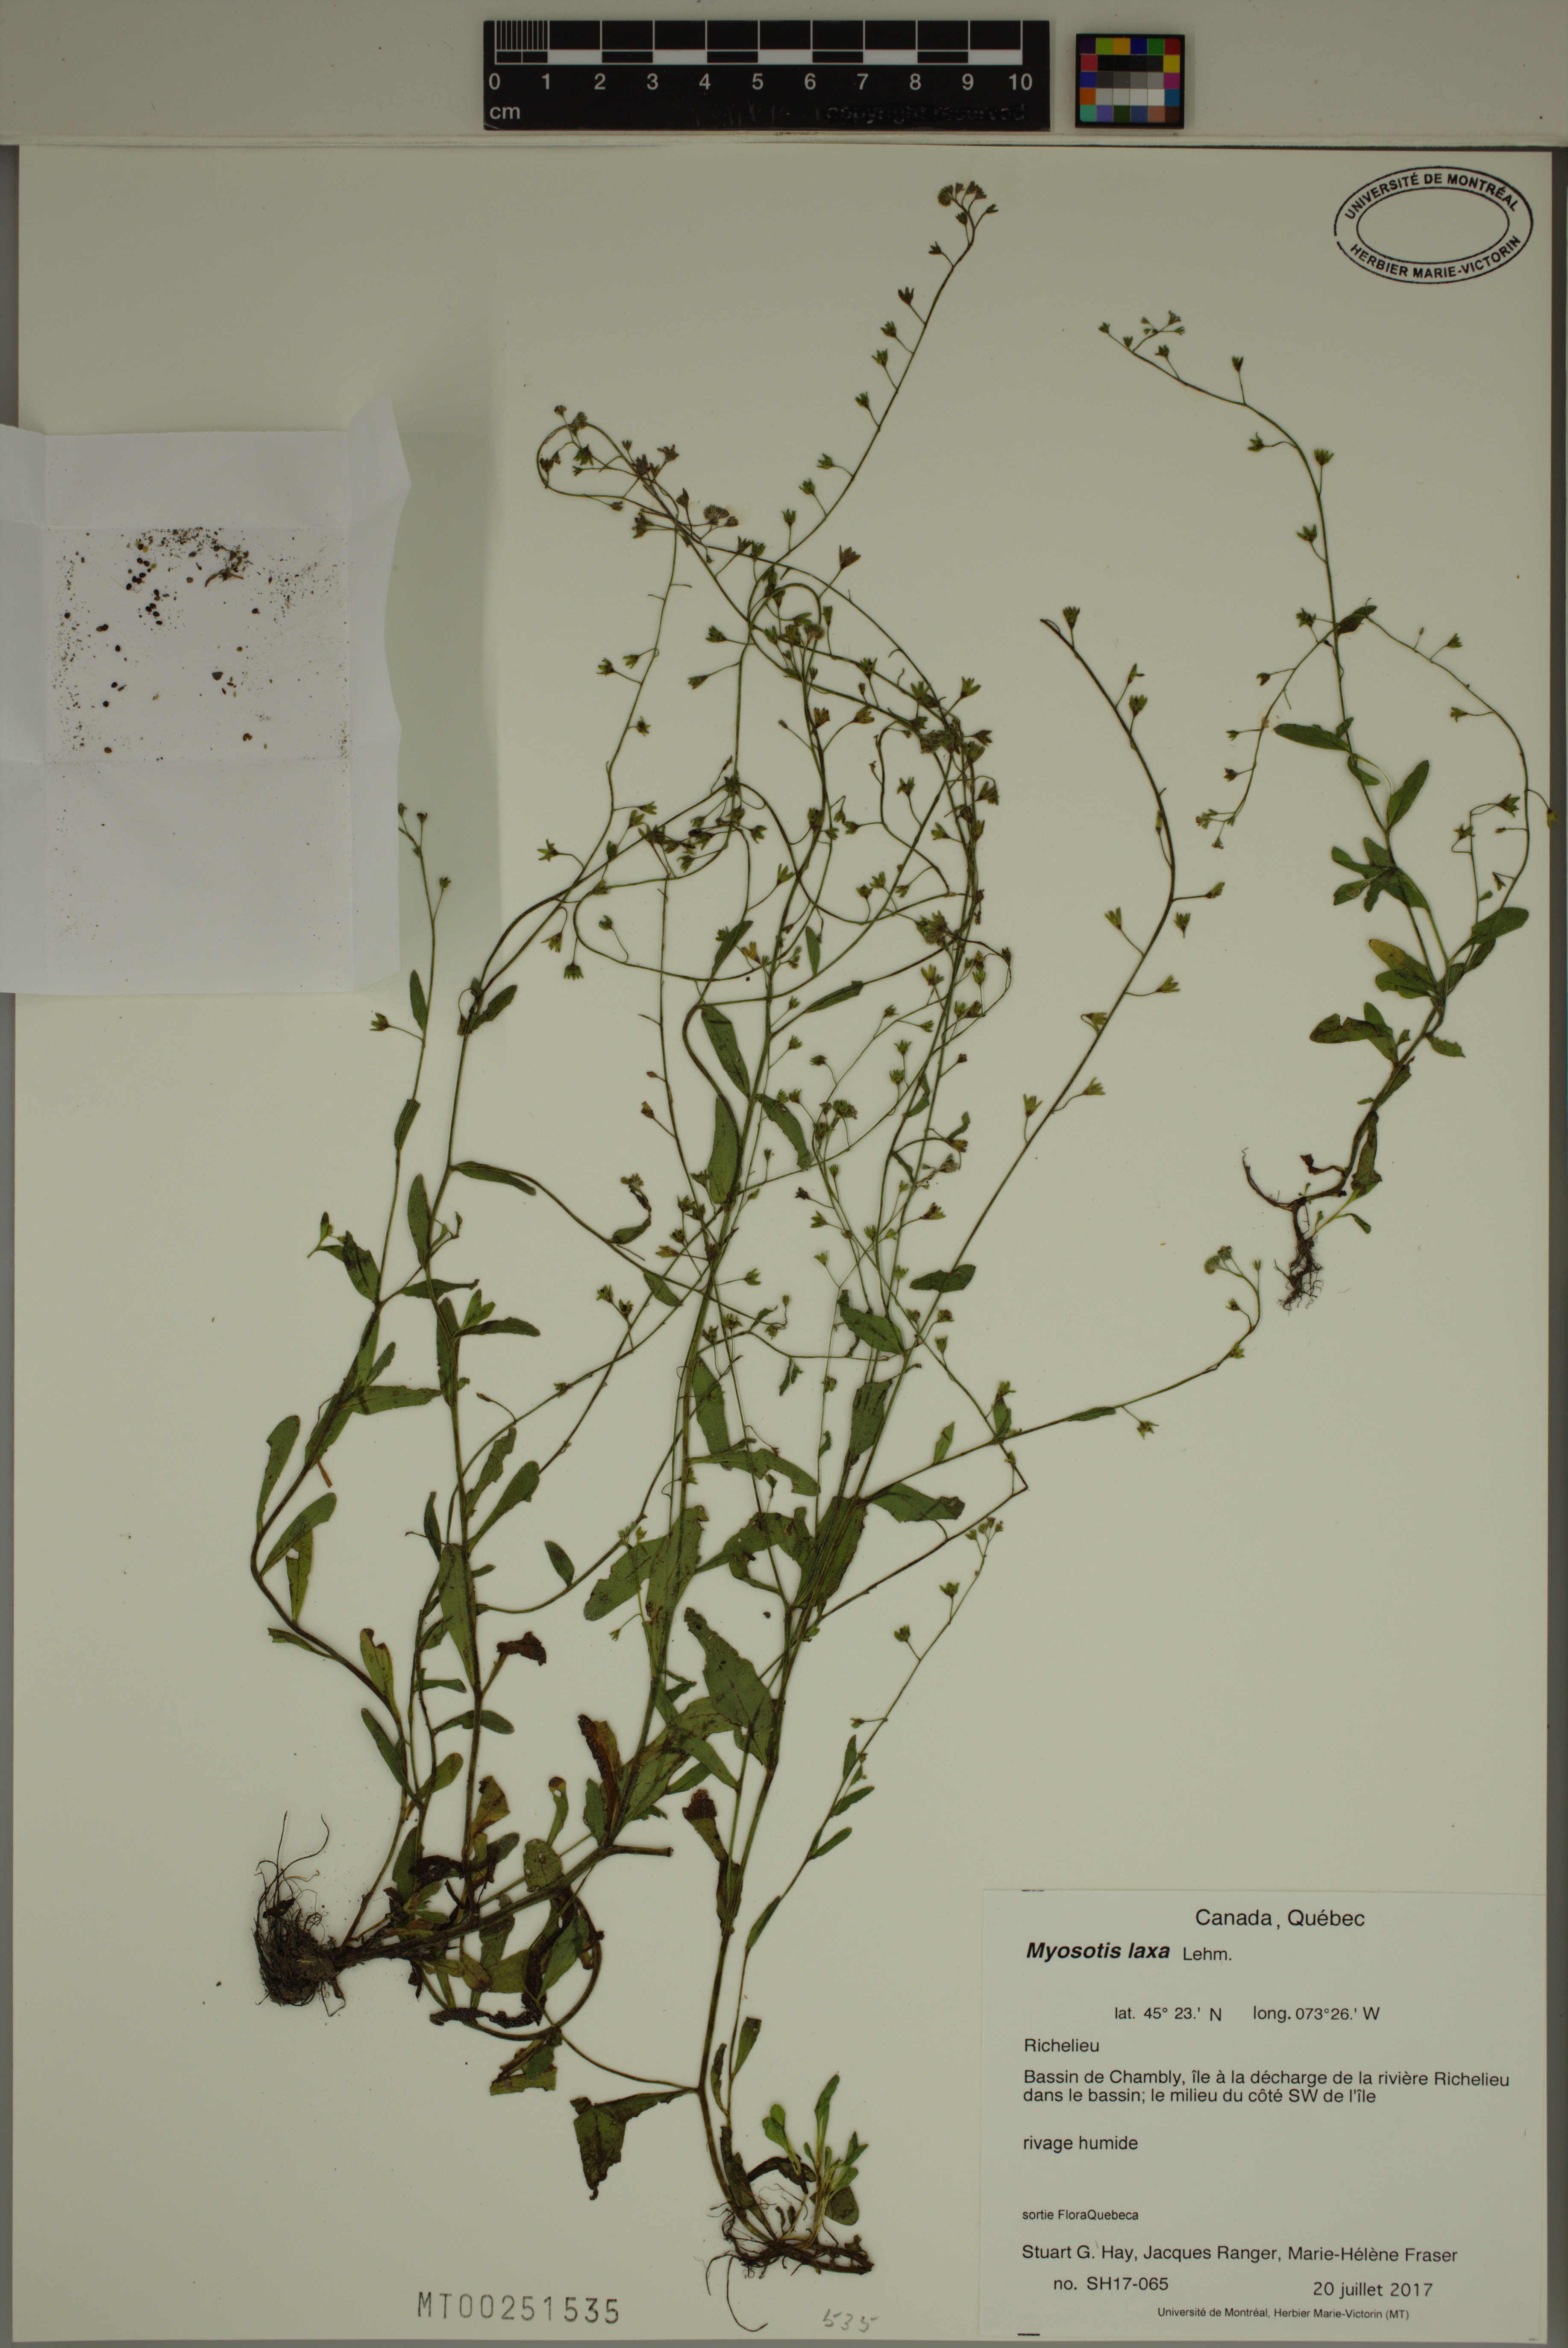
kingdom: Plantae
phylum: Tracheophyta
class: Magnoliopsida
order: Boraginales
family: Boraginaceae
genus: Myosotis
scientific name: Myosotis laxa
